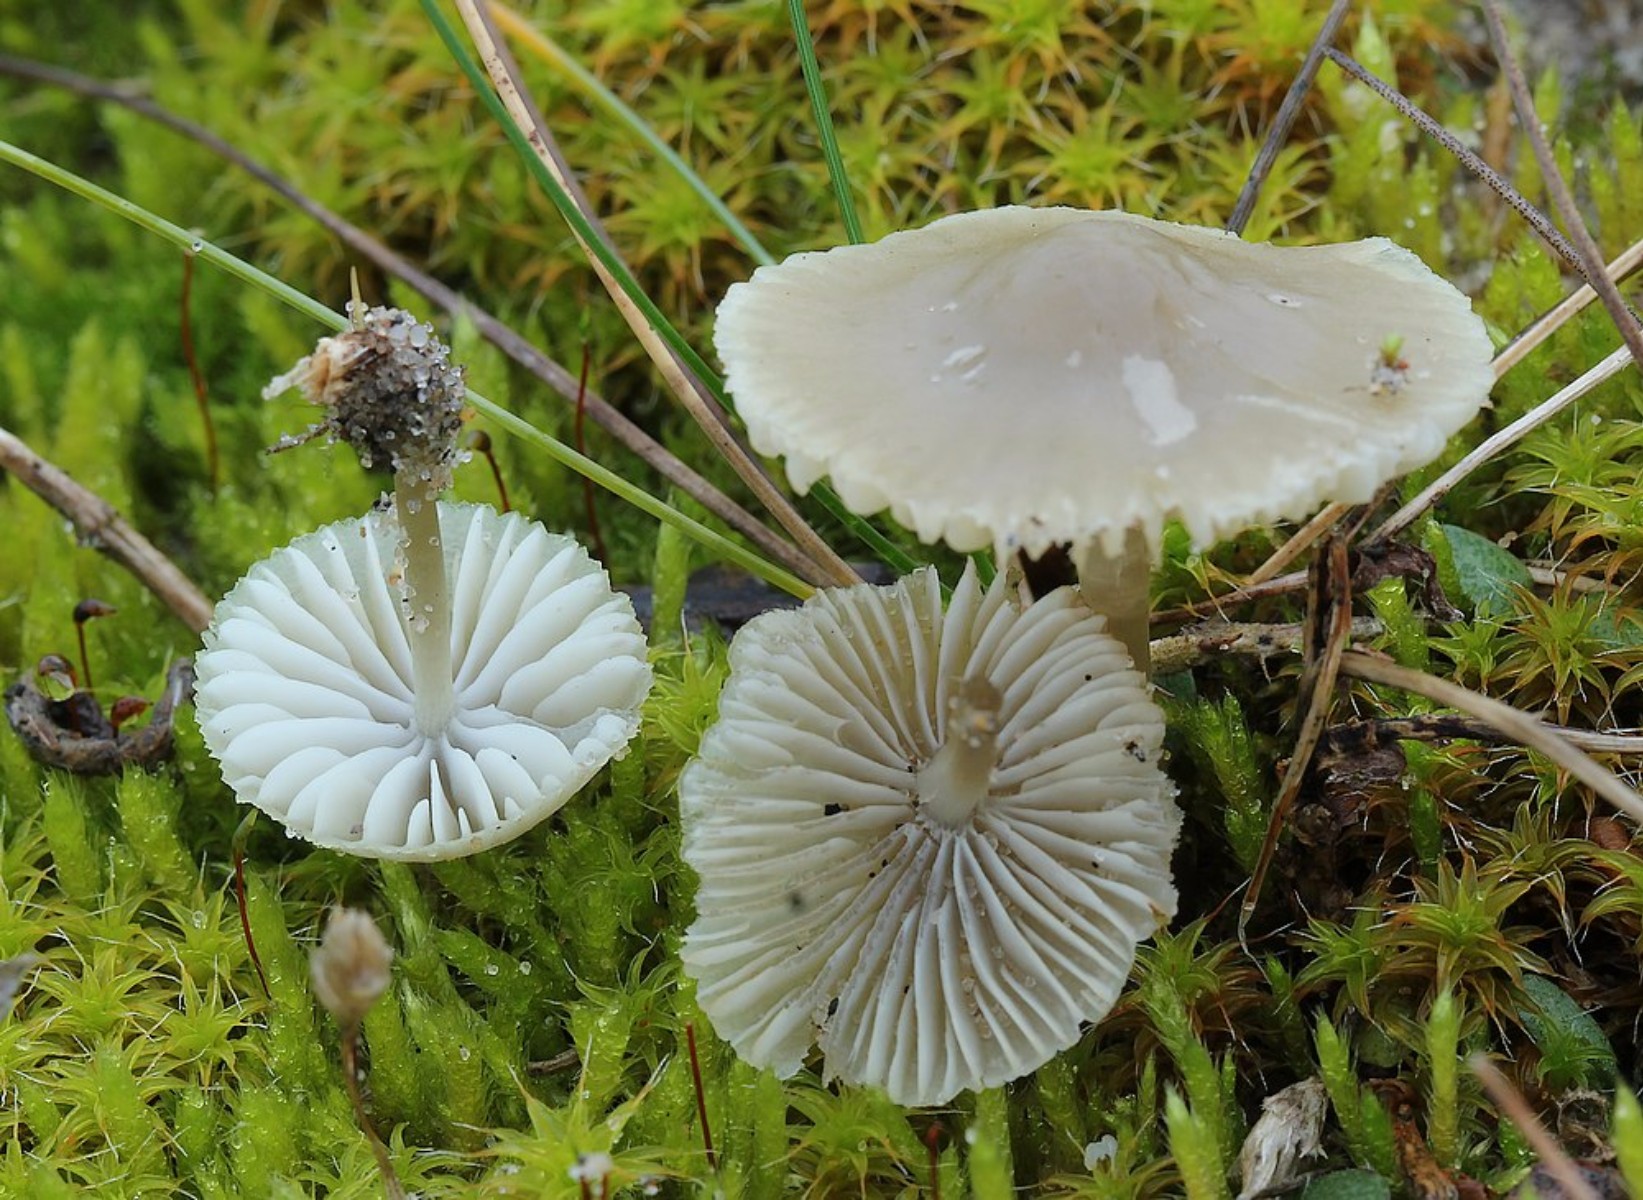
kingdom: Fungi
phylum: Basidiomycota
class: Agaricomycetes
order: Agaricales
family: Mycenaceae
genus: Mycena
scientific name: Mycena chlorantha
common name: klit-huesvamp
